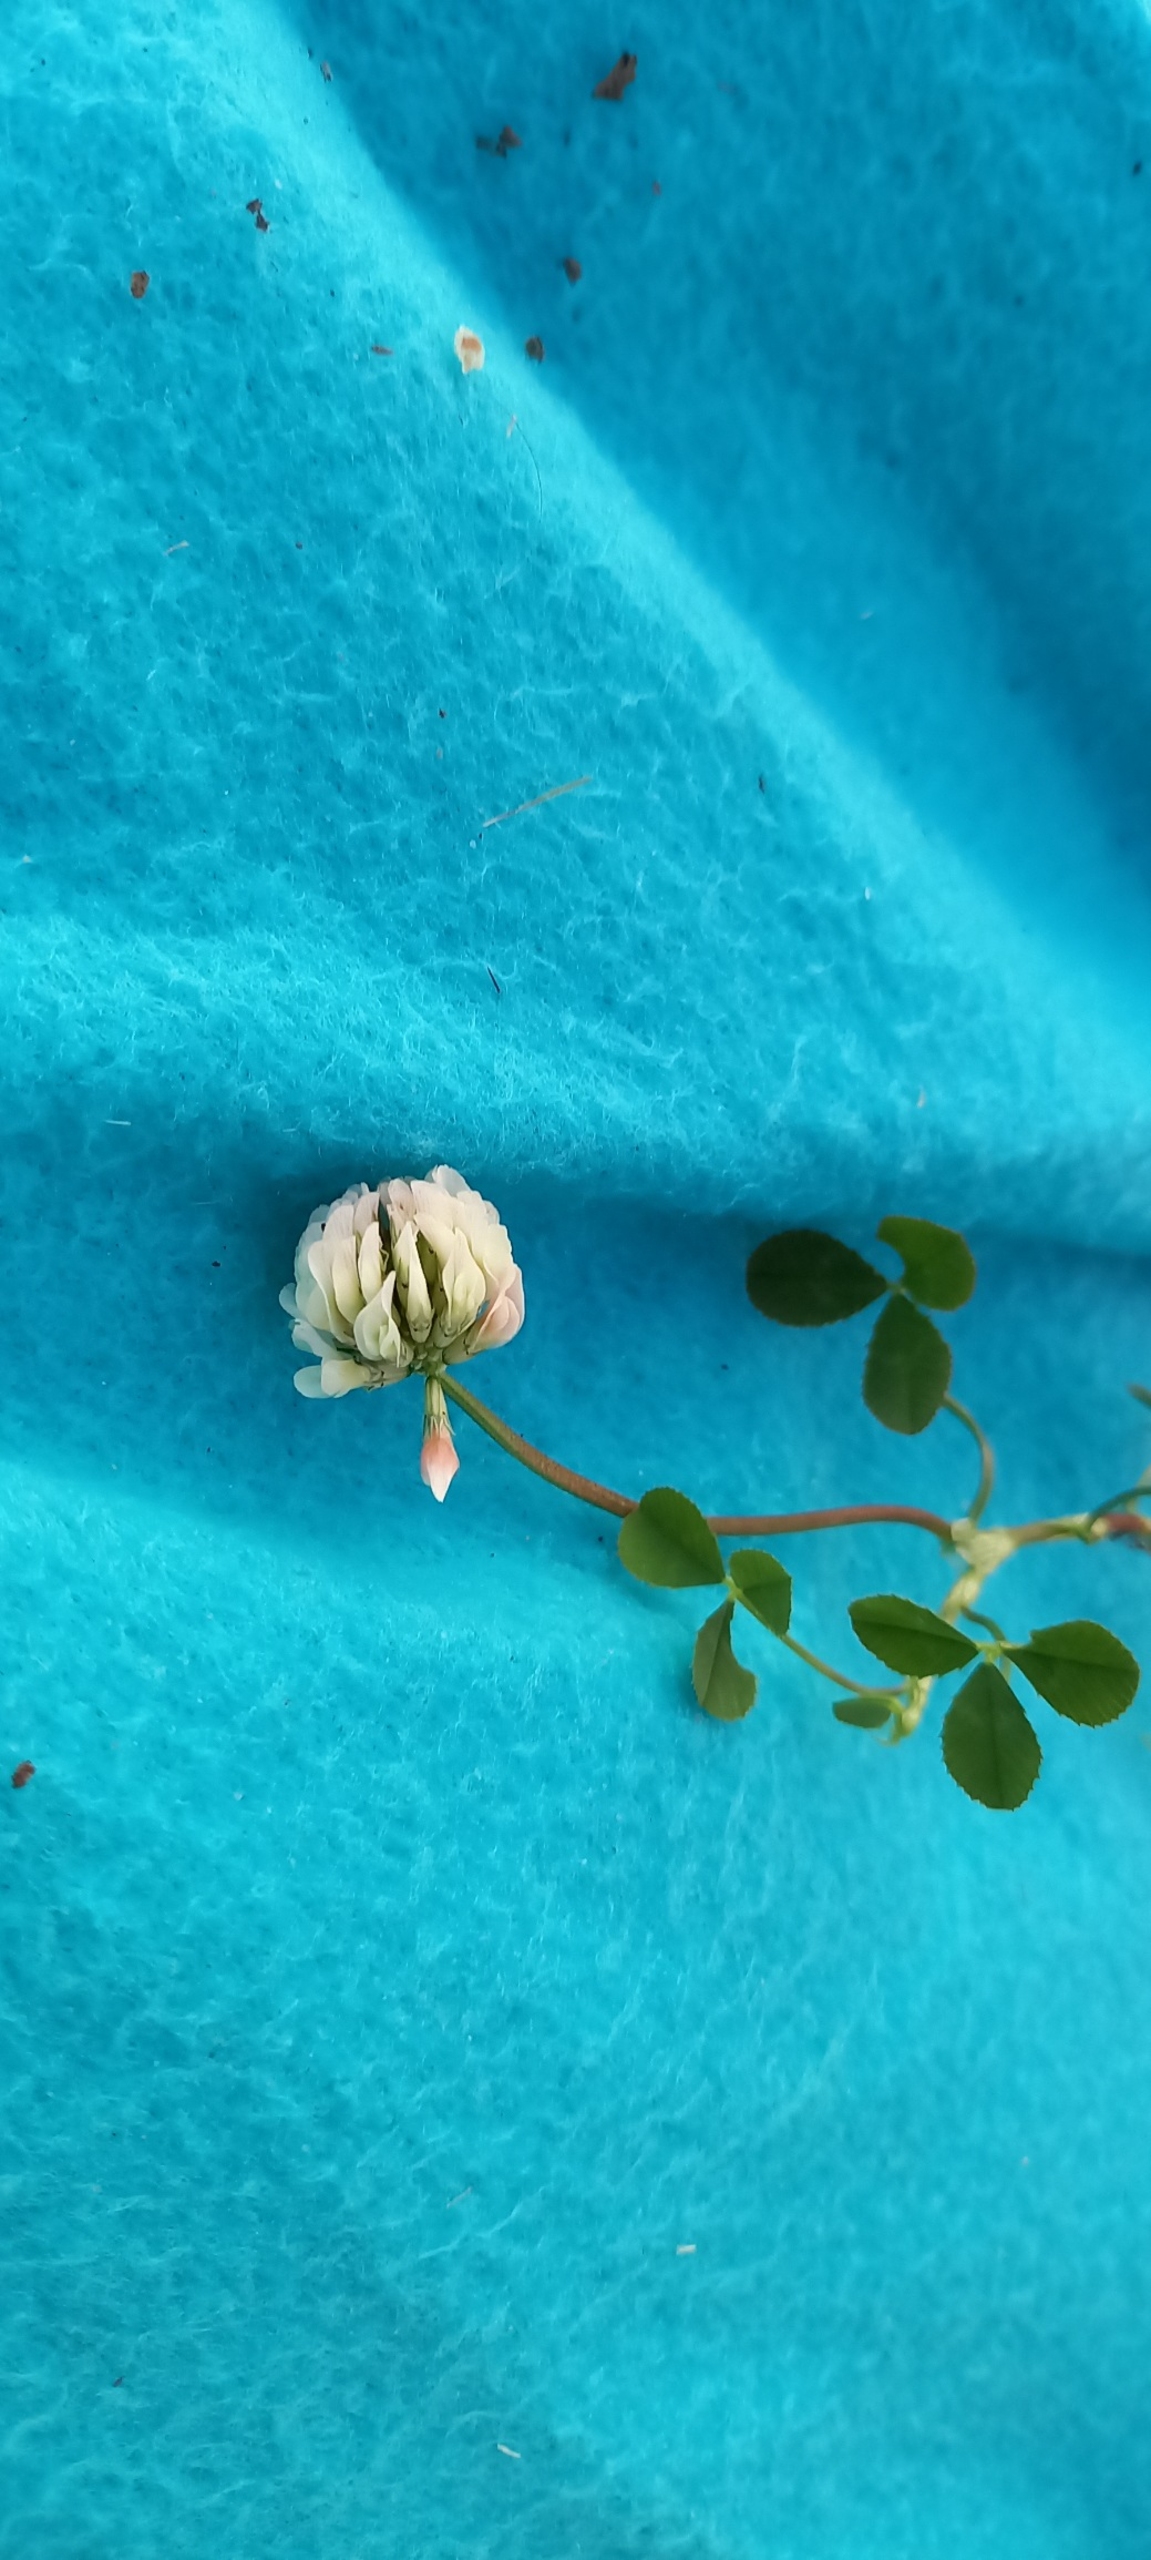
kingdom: Plantae
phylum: Tracheophyta
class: Magnoliopsida
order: Fabales
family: Fabaceae
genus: Trifolium
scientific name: Trifolium repens
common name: Hvid-kløver
